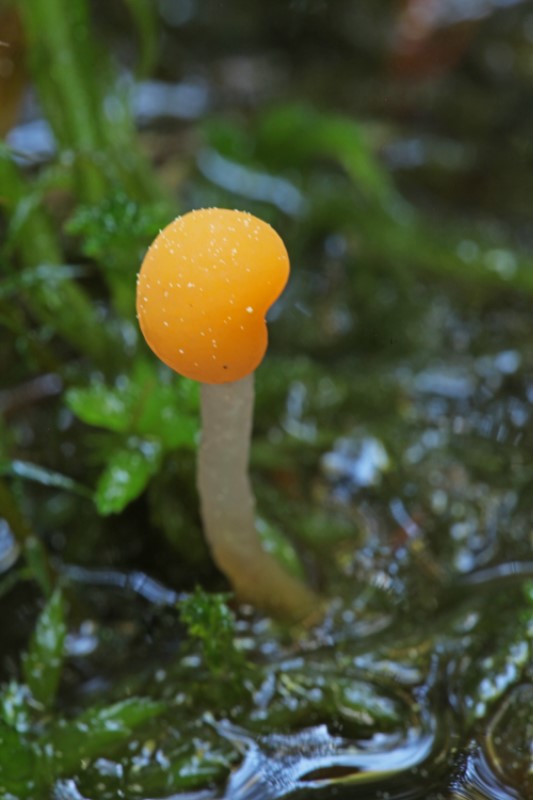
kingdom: Fungi
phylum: Ascomycota
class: Leotiomycetes
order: Helotiales
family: Cenangiaceae
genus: Mitrula
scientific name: Mitrula paludosa
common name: gul nøkketunge
